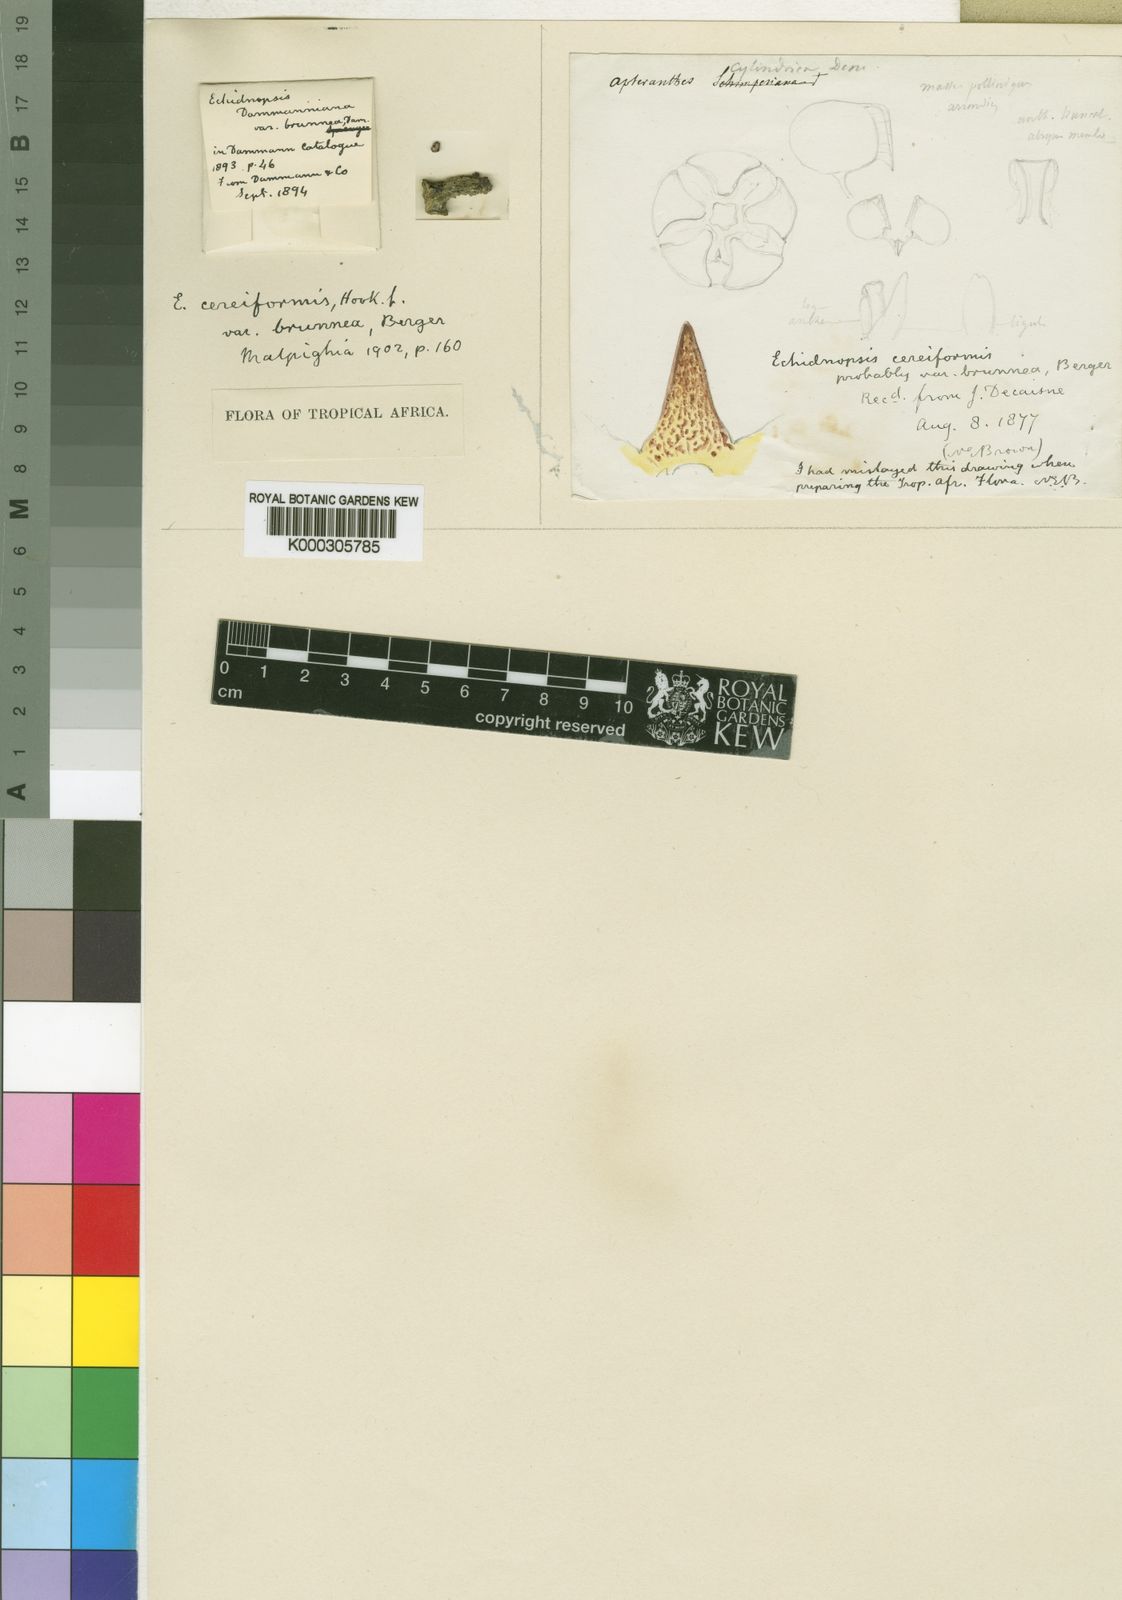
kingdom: Plantae
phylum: Tracheophyta
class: Magnoliopsida
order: Gentianales
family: Apocynaceae
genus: Ceropegia
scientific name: Ceropegia cereiformis
